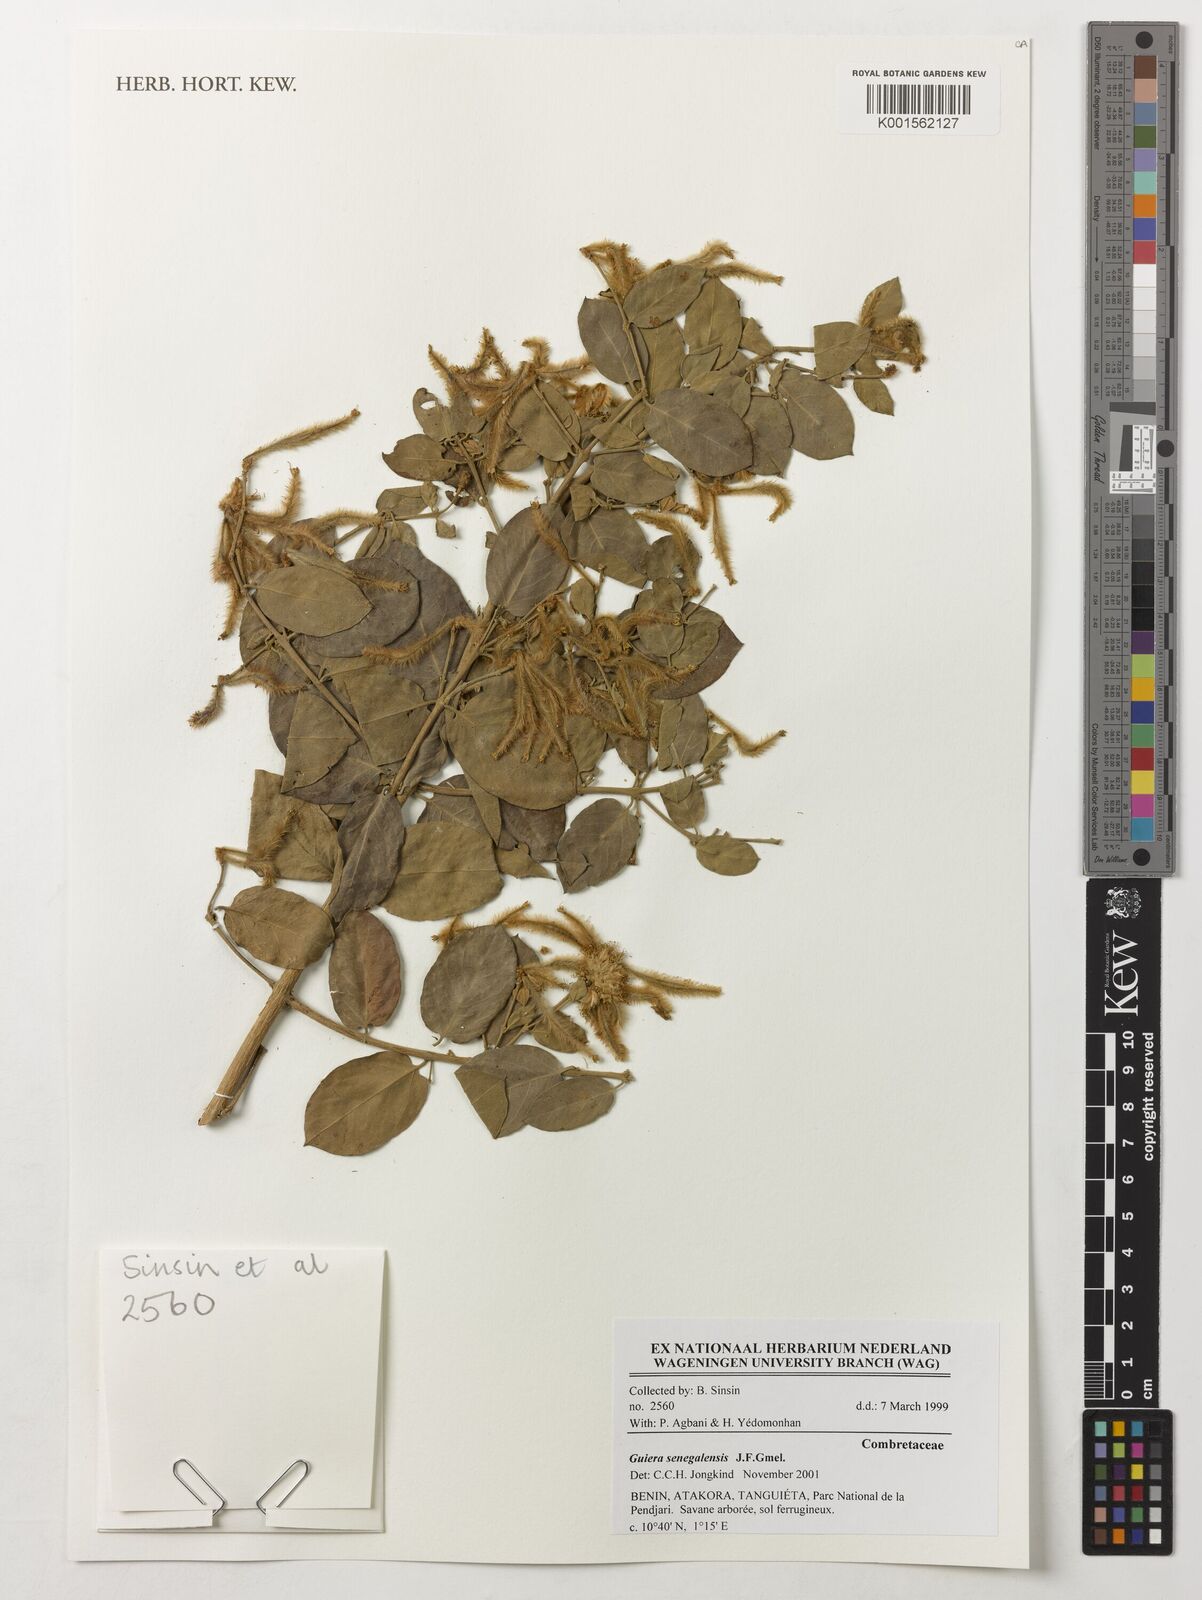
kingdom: Plantae
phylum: Tracheophyta
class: Magnoliopsida
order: Myrtales
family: Combretaceae
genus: Guiera
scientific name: Guiera senegalensis
